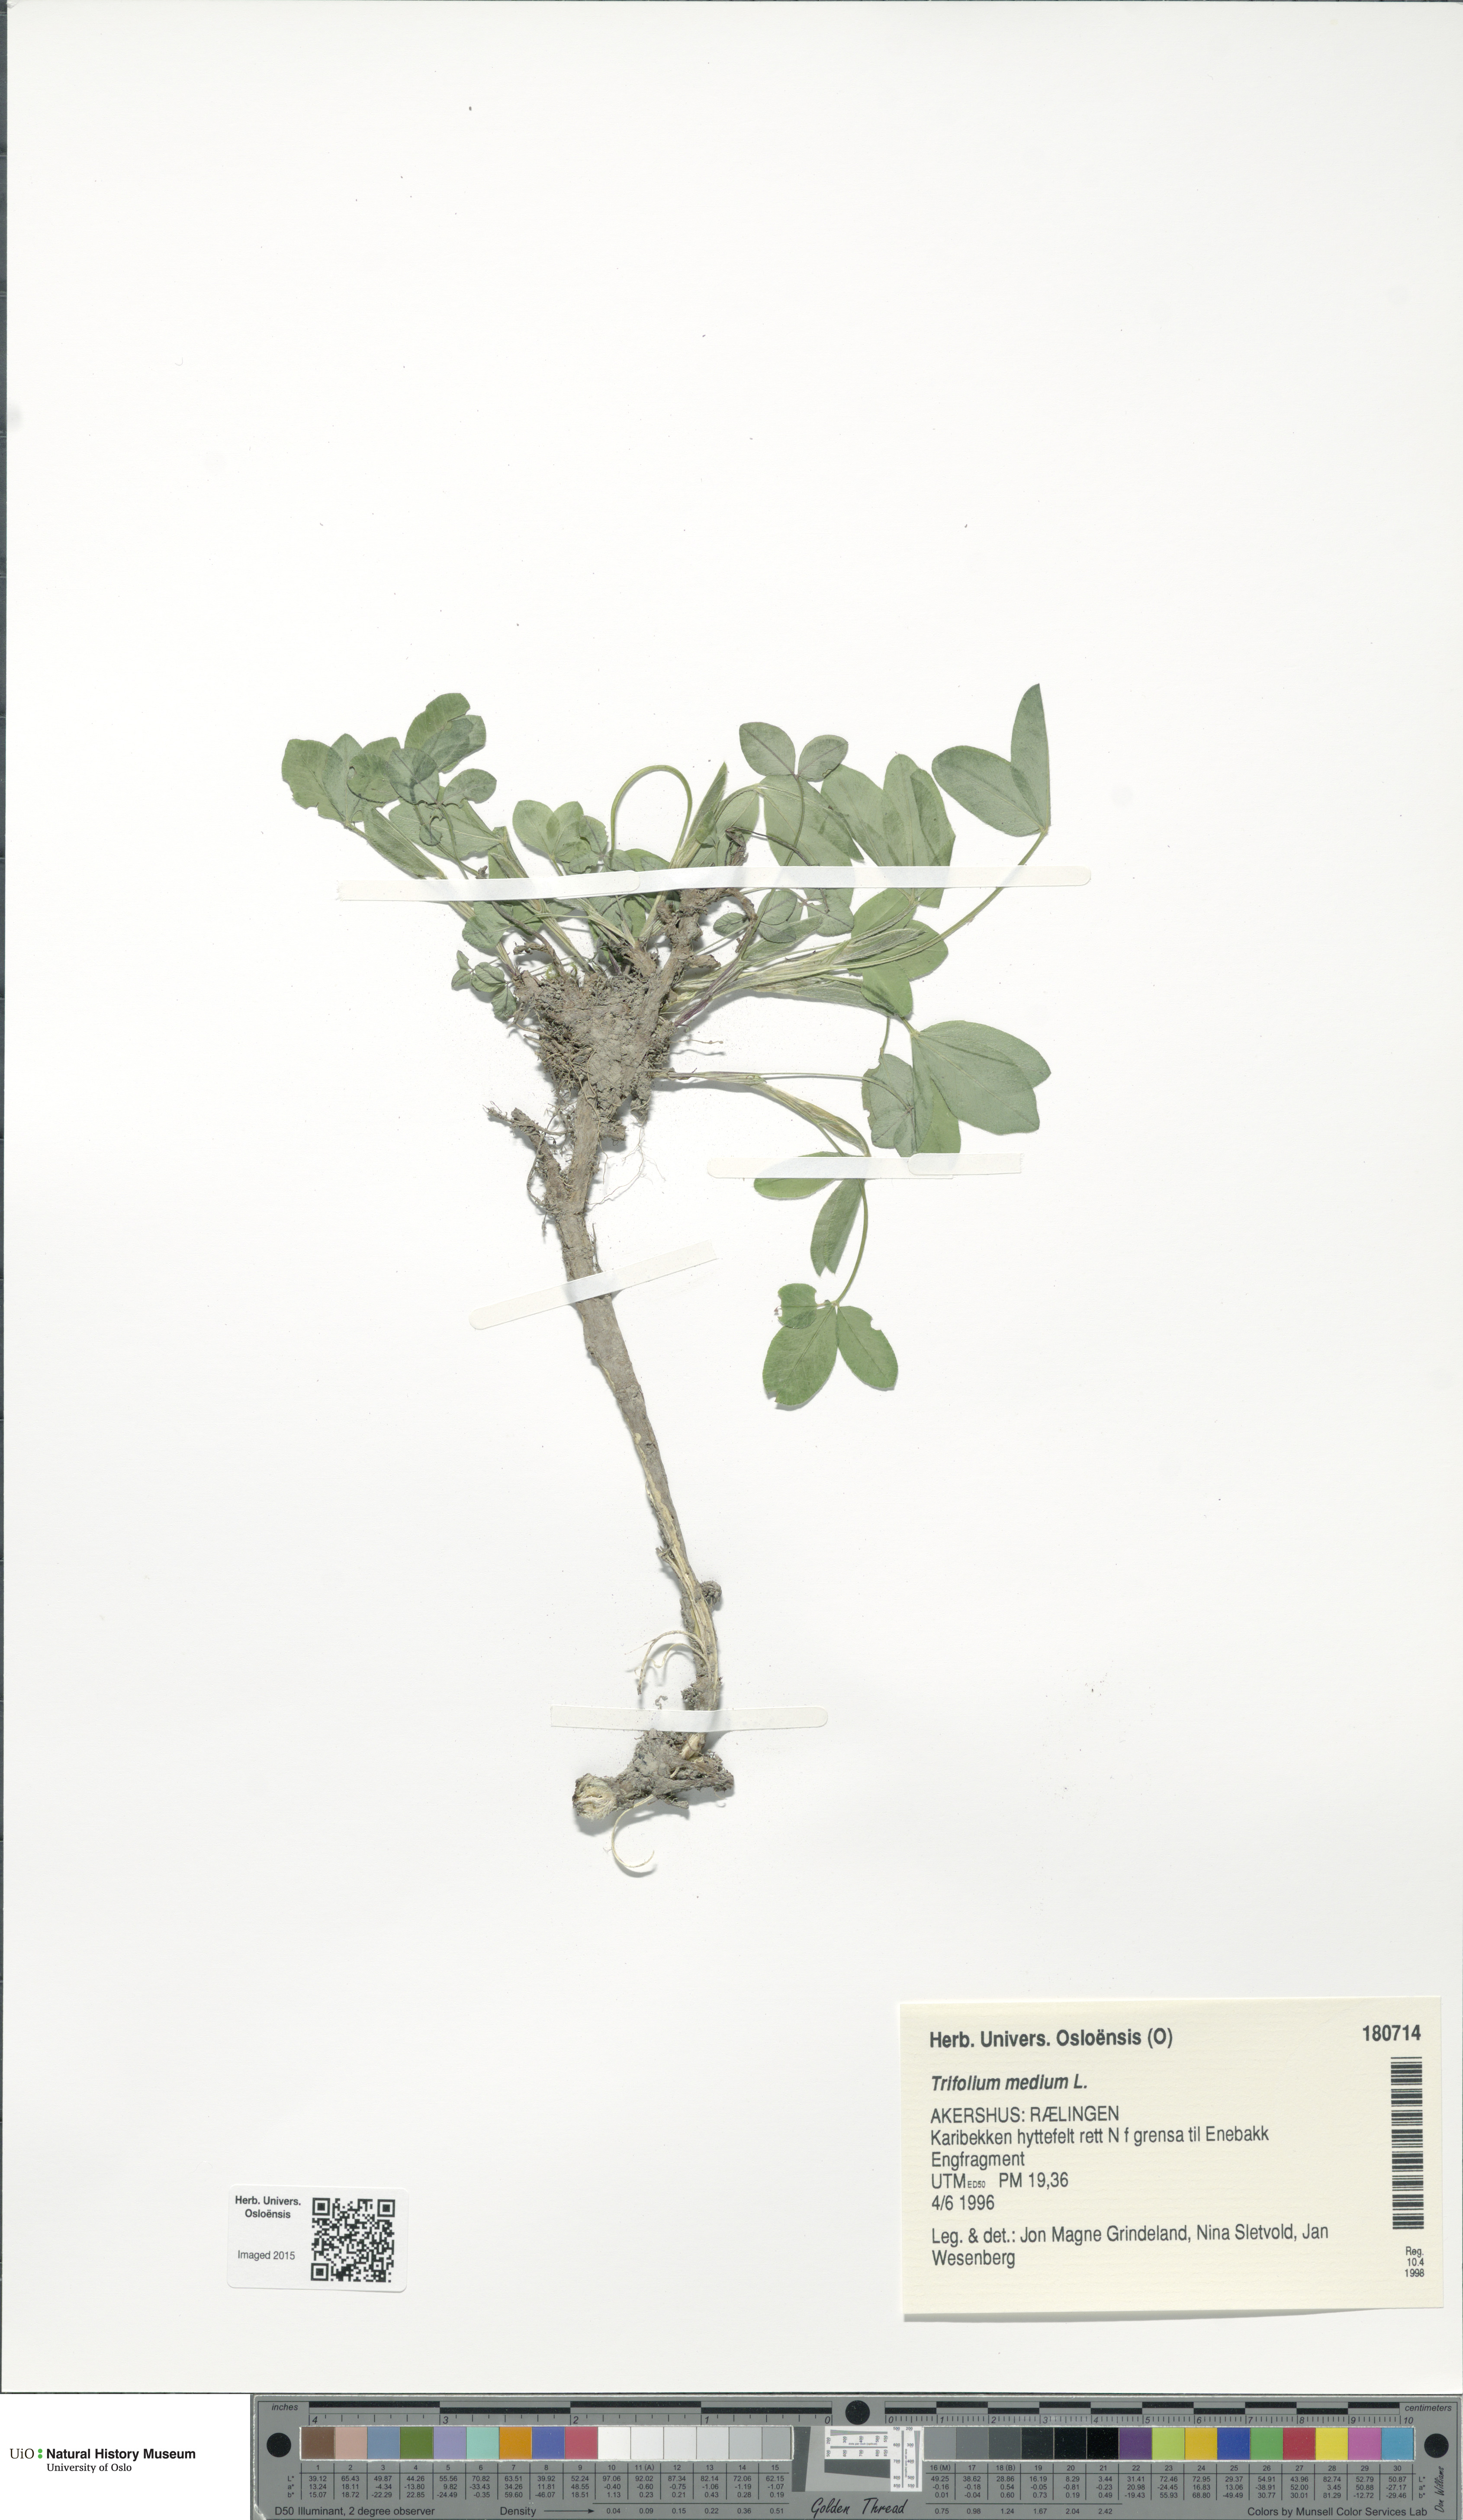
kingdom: Plantae
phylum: Tracheophyta
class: Magnoliopsida
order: Fabales
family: Fabaceae
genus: Trifolium
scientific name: Trifolium medium
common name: Zigzag clover
